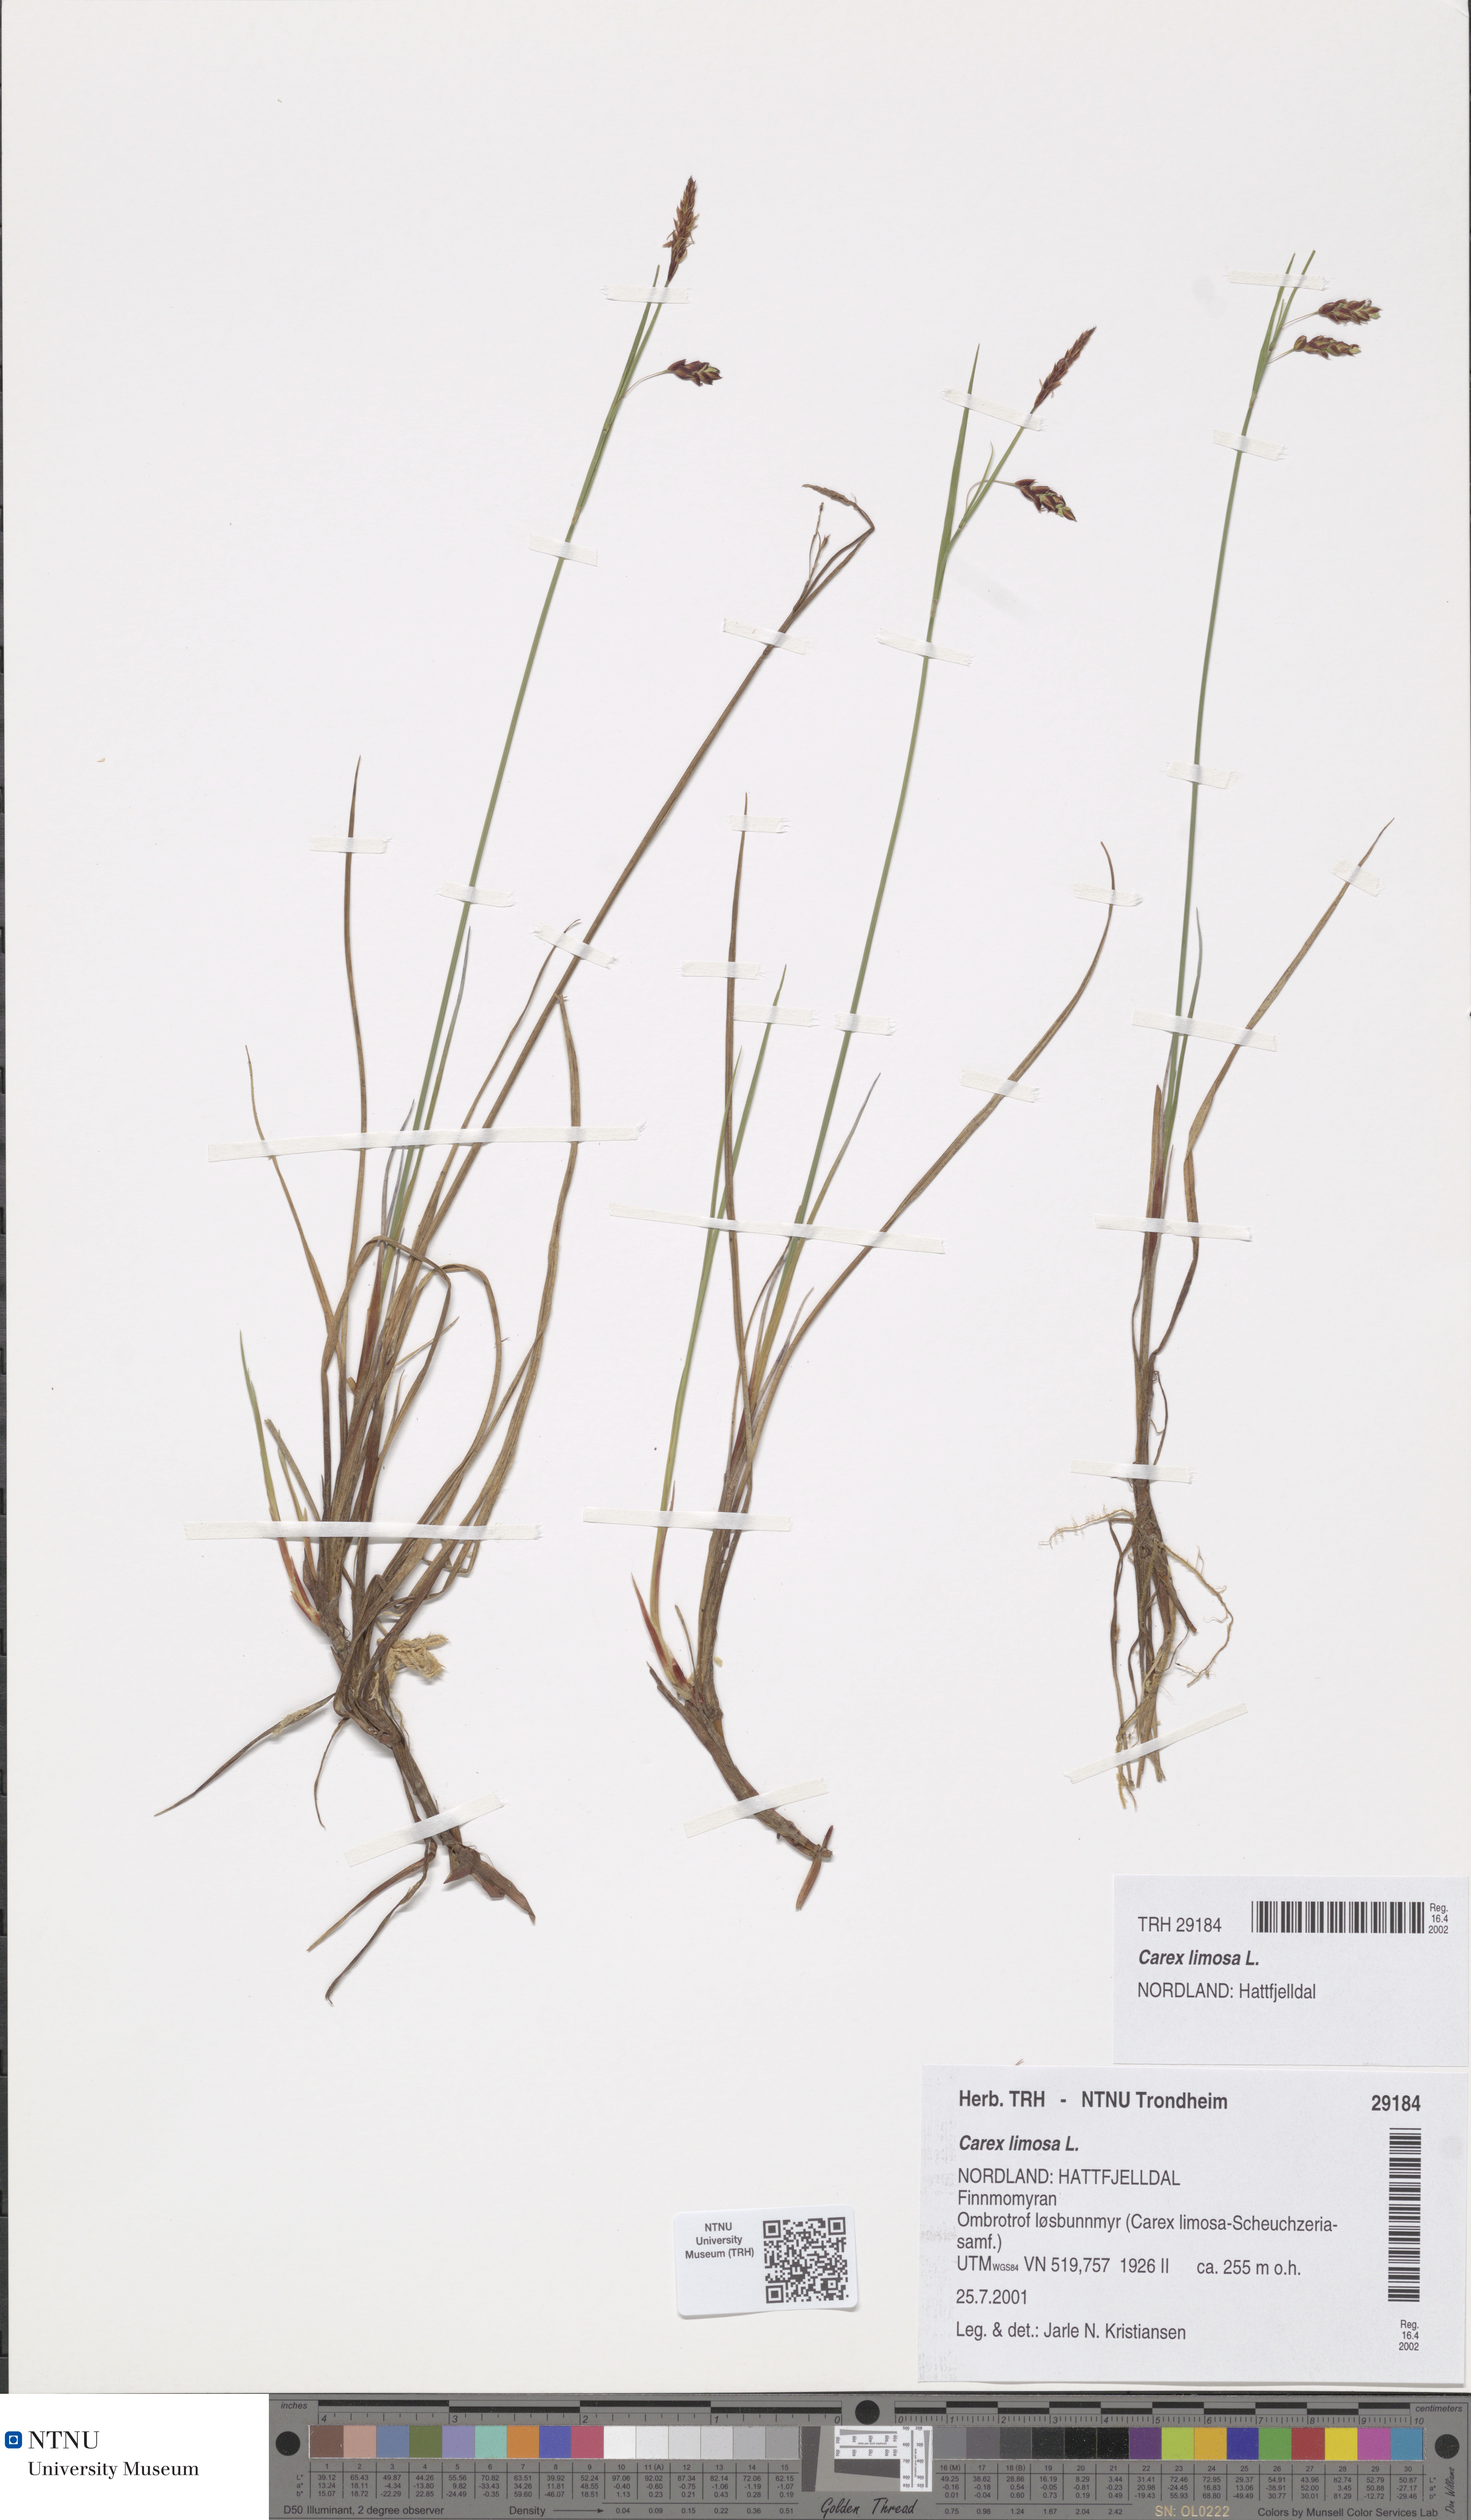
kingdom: Plantae
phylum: Tracheophyta
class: Liliopsida
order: Poales
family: Cyperaceae
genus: Carex
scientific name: Carex limosa
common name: Bog sedge
